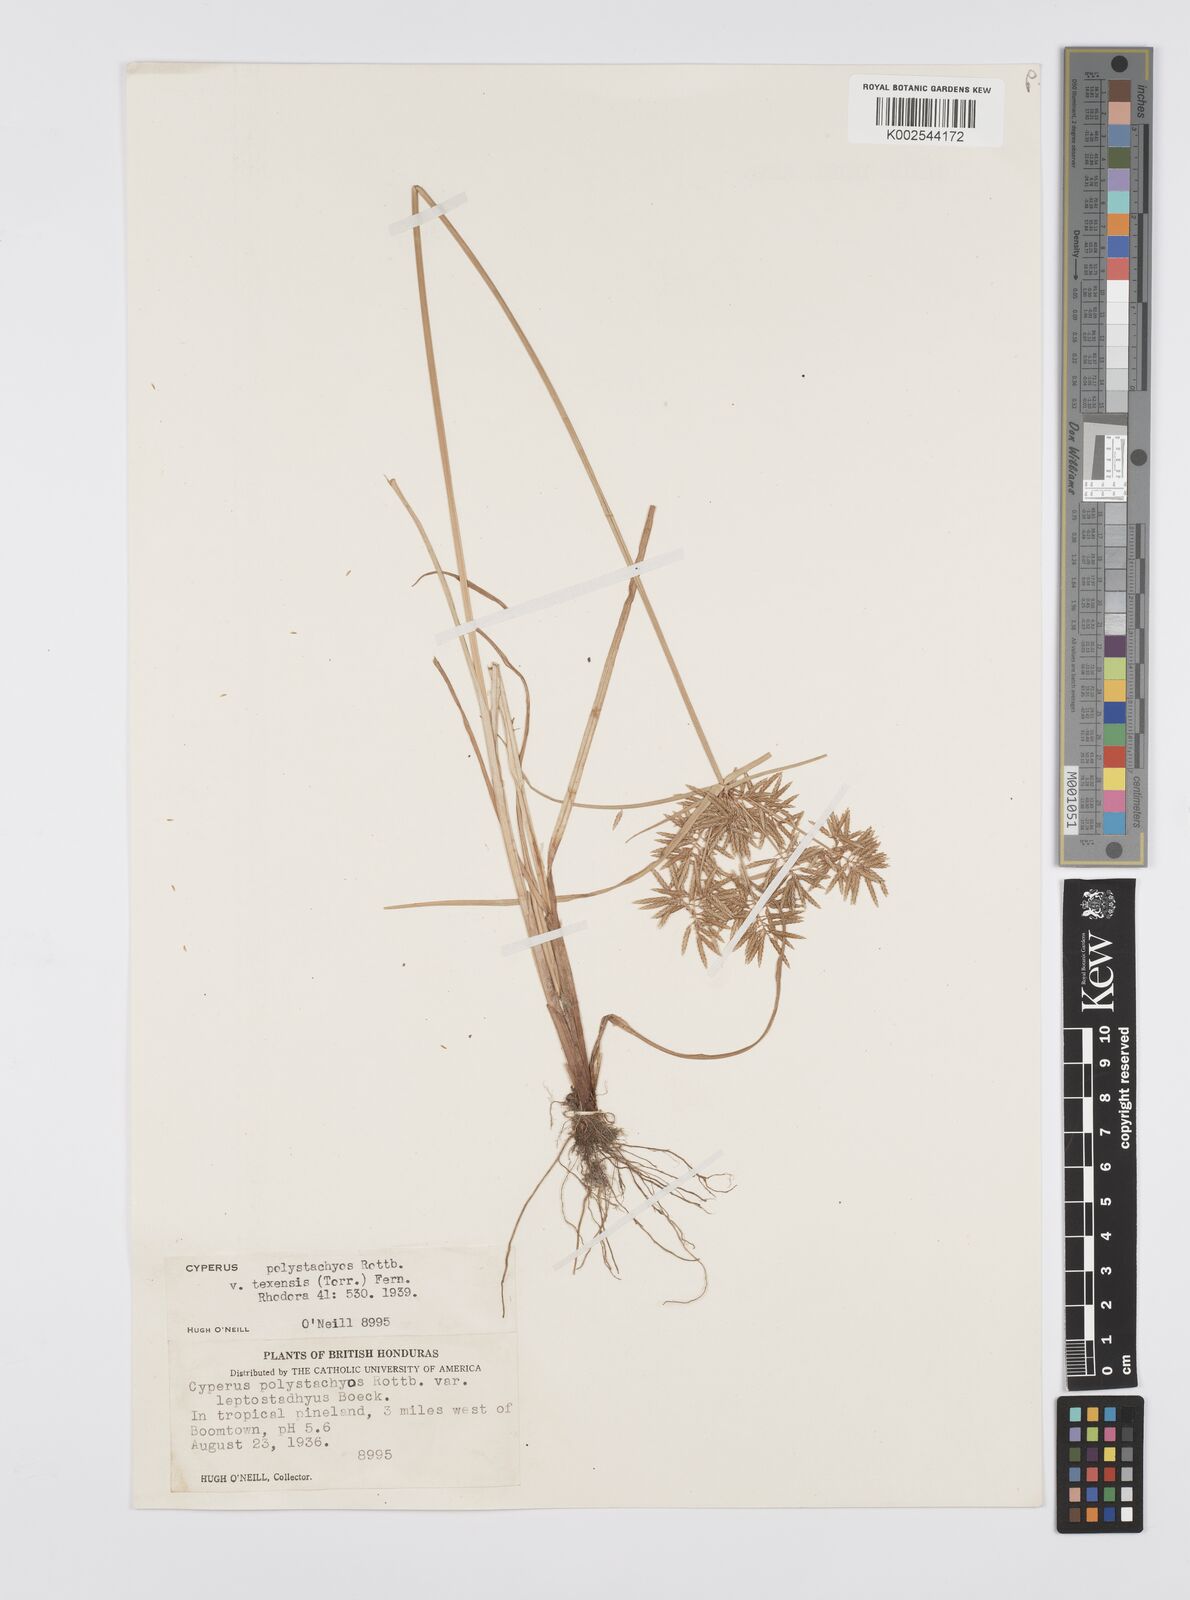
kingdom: Plantae
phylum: Tracheophyta
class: Liliopsida
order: Poales
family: Cyperaceae
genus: Cyperus
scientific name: Cyperus polystachyos
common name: Bunchy flat sedge
